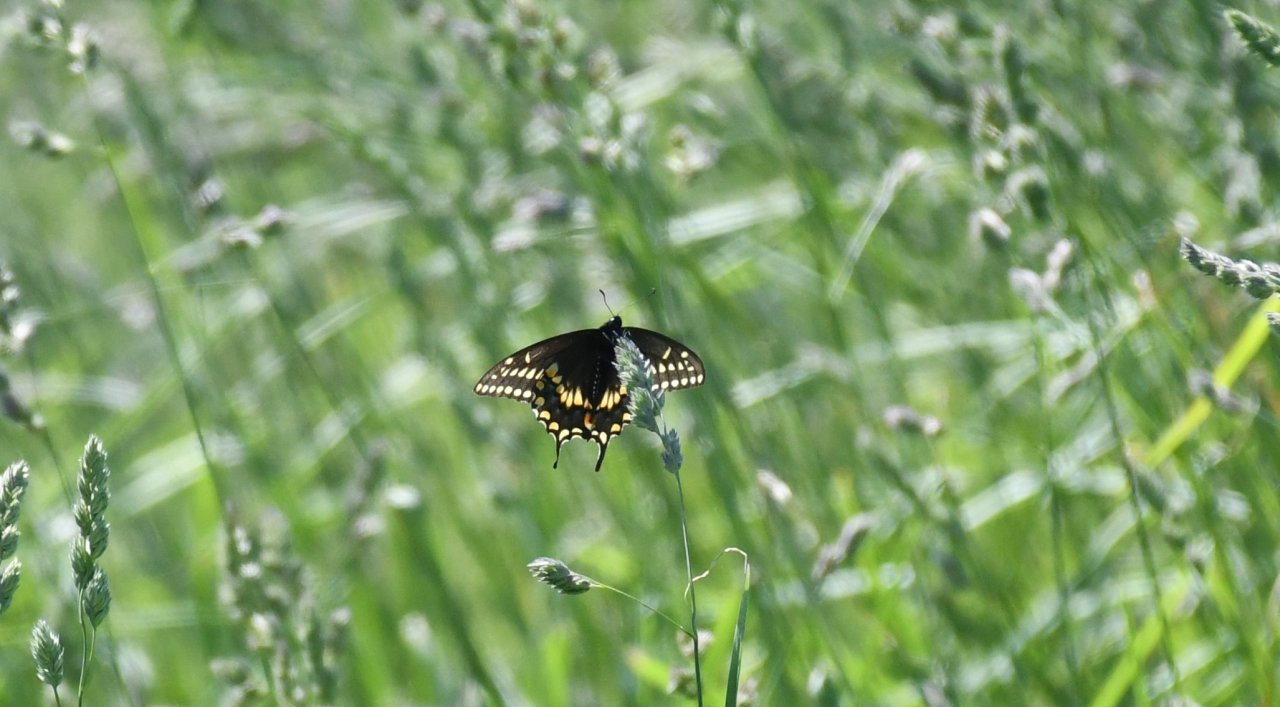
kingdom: Animalia
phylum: Arthropoda
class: Insecta
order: Lepidoptera
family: Papilionidae
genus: Papilio
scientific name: Papilio polyxenes
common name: Black Swallowtail
